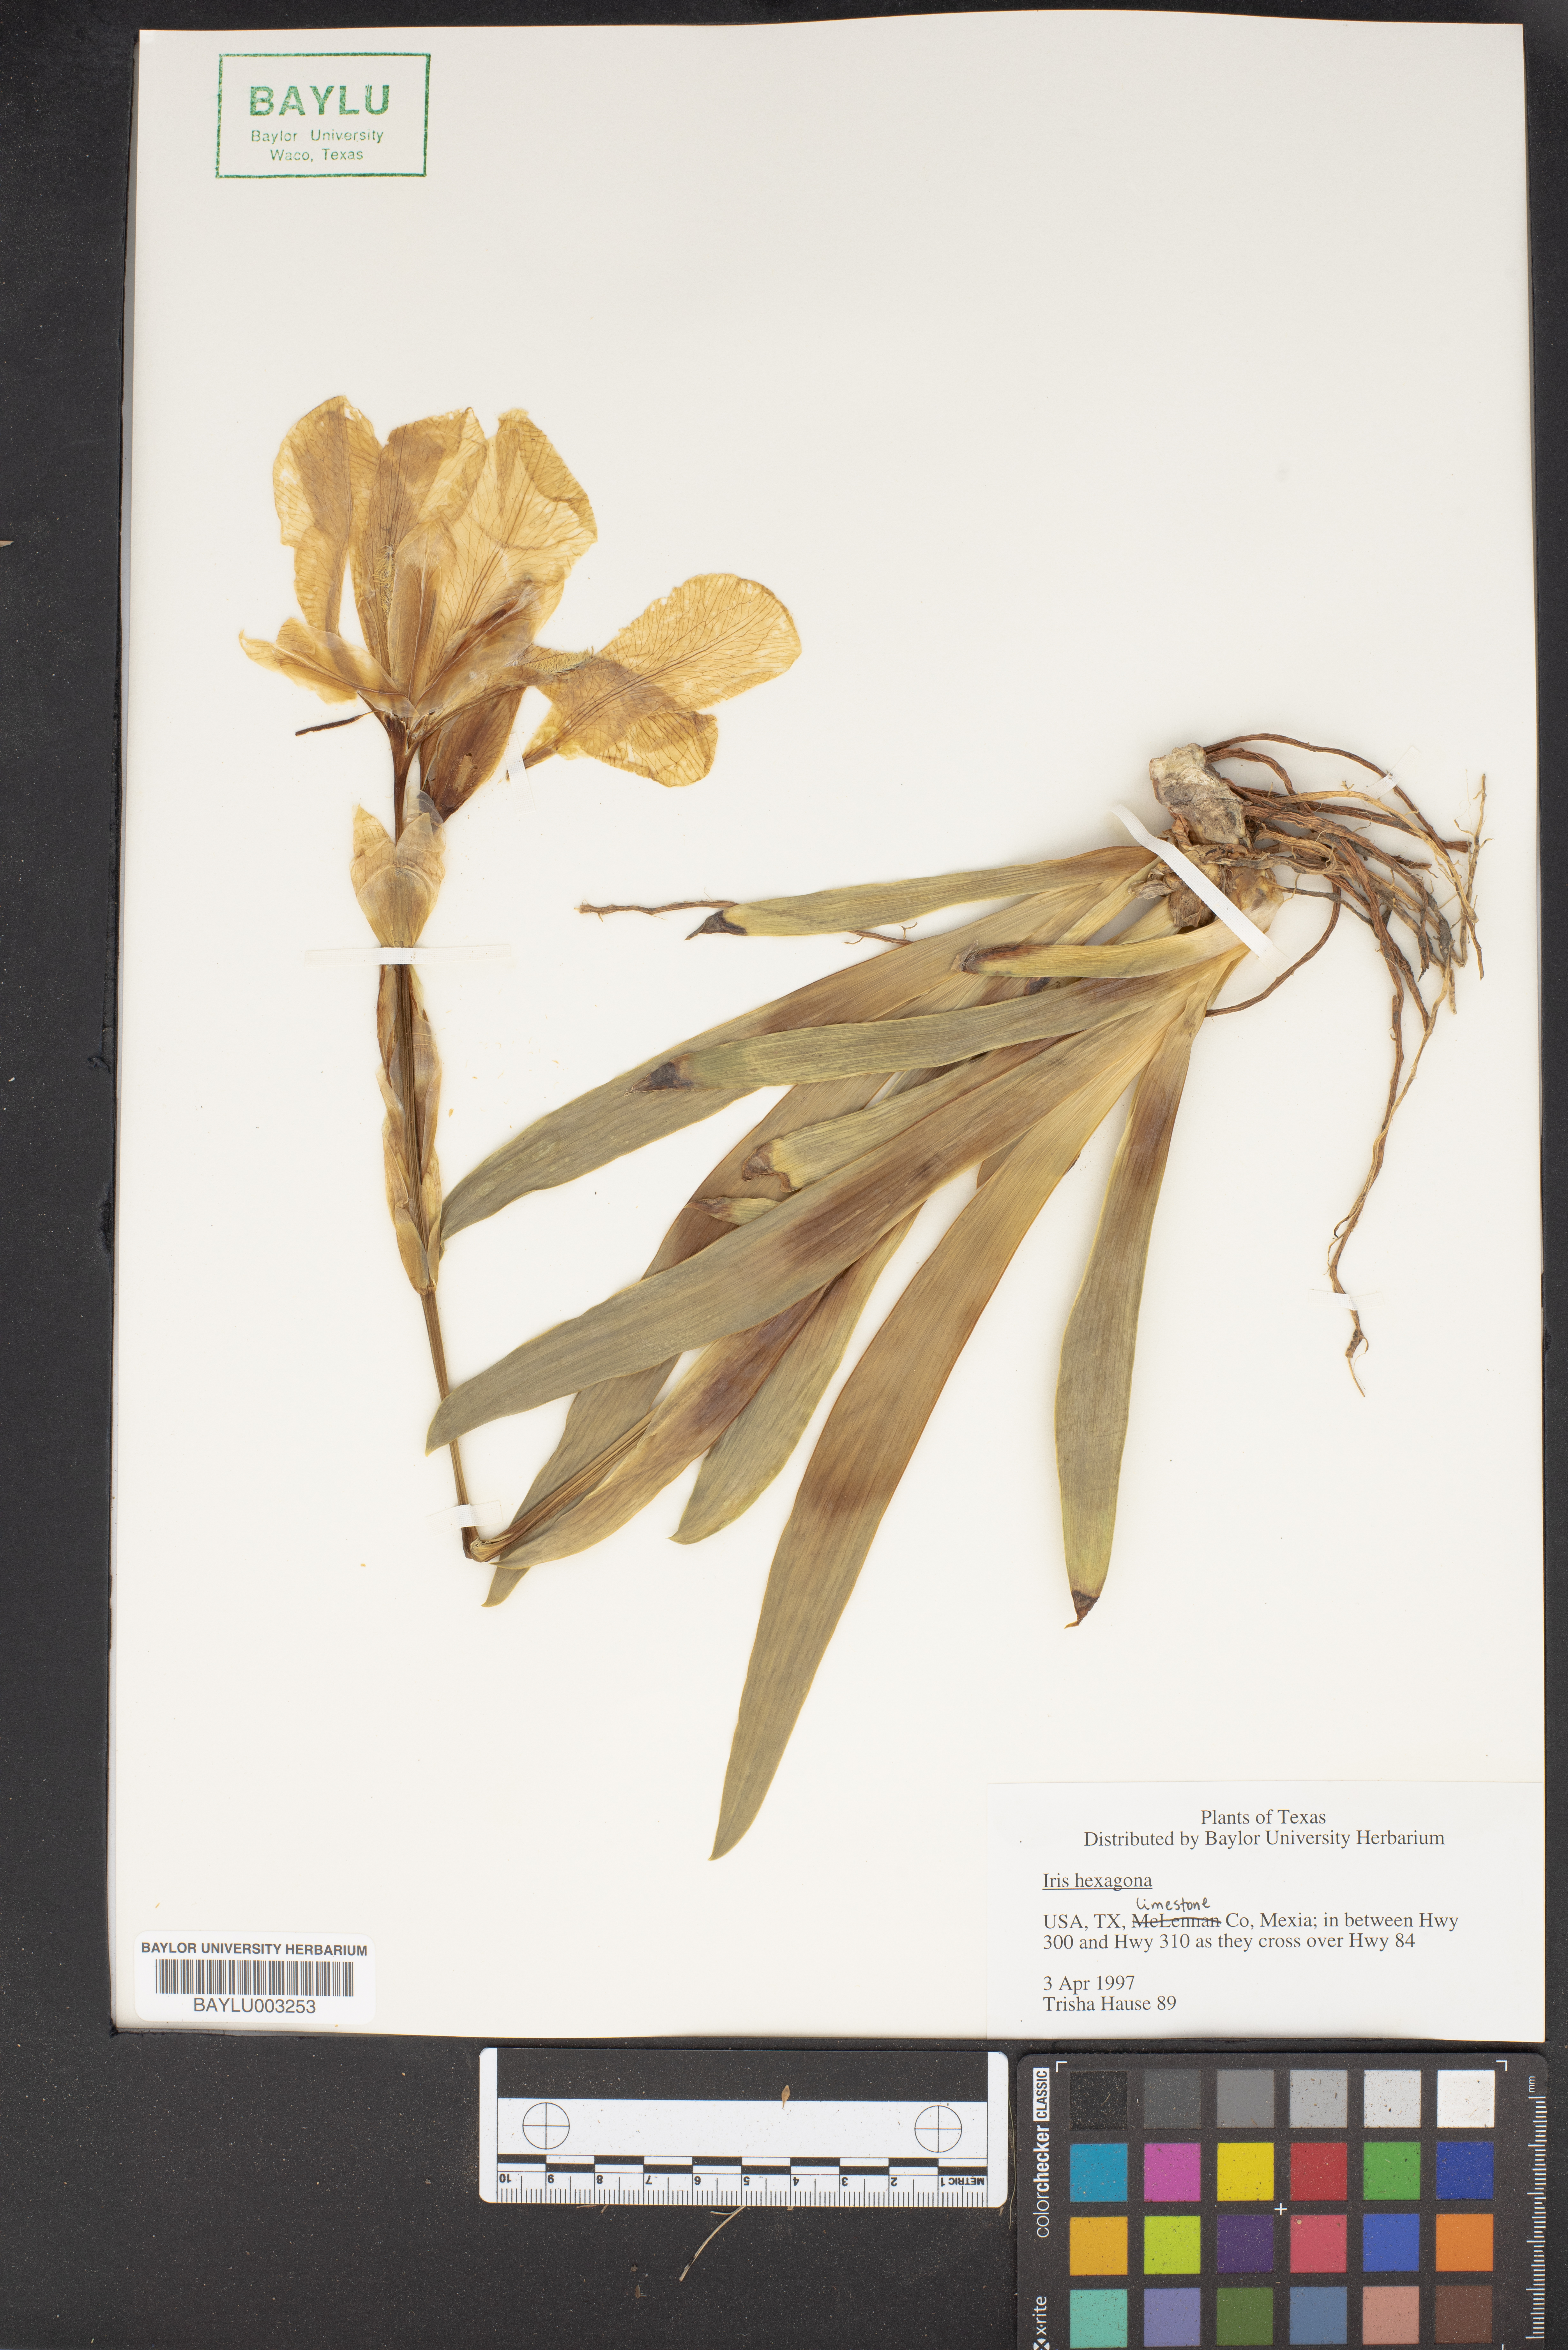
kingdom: Plantae
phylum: Tracheophyta
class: Liliopsida
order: Asparagales
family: Iridaceae
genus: Iris
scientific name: Iris hexagona
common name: Carolina iris
